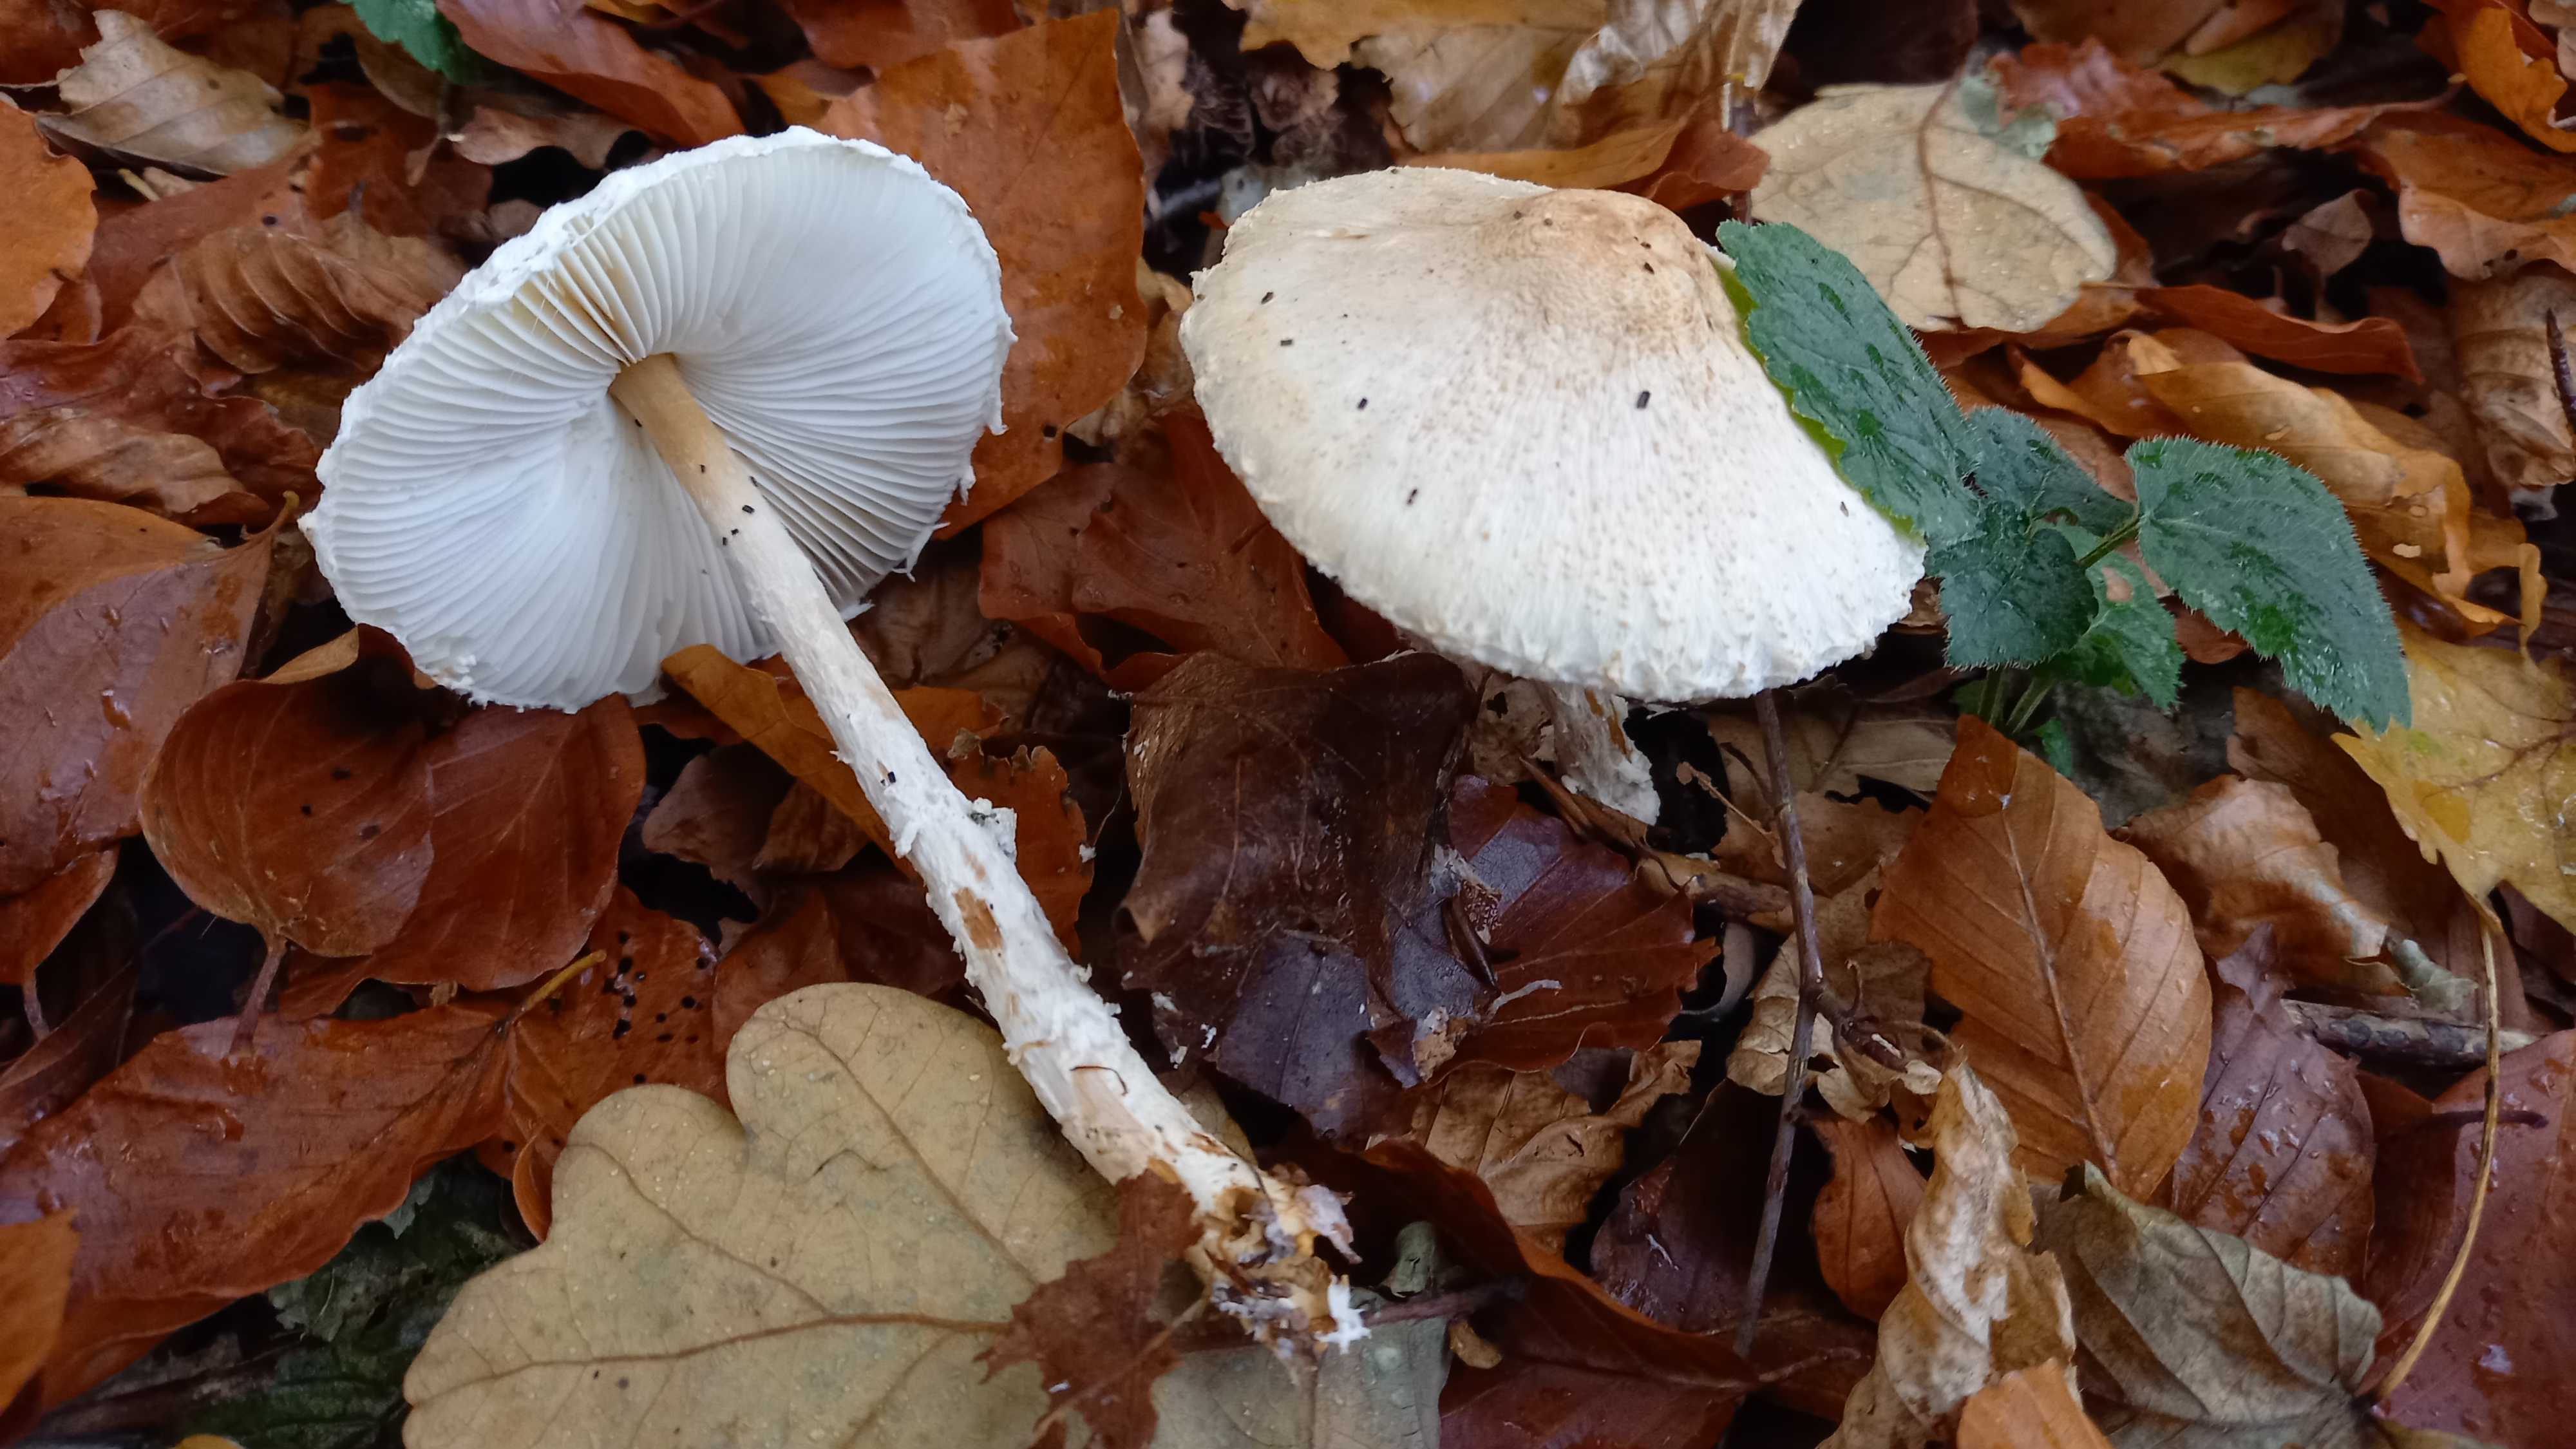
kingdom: Fungi
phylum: Basidiomycota
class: Agaricomycetes
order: Agaricales
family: Agaricaceae
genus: Lepiota
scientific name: Lepiota clypeolaria
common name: flosset parasolhat
